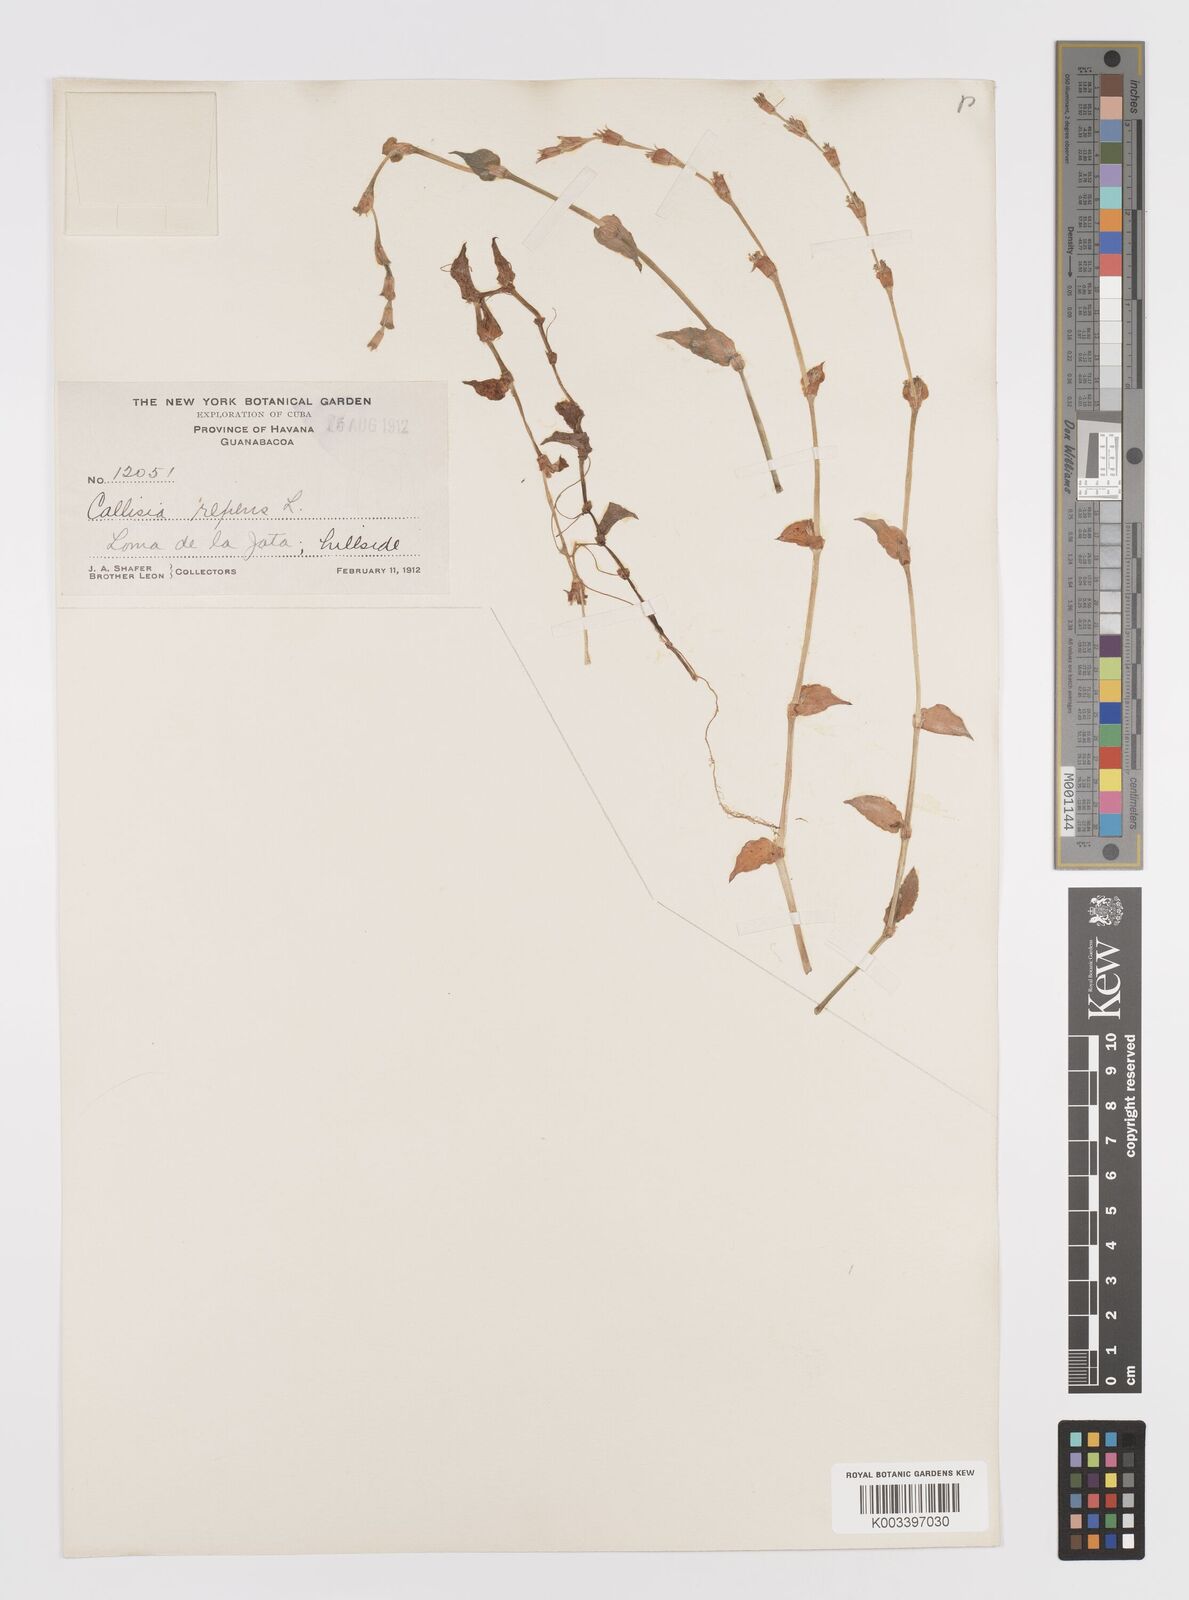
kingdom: Plantae
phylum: Tracheophyta
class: Liliopsida
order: Commelinales
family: Commelinaceae
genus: Callisia
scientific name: Callisia repens
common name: Creeping inchplant
